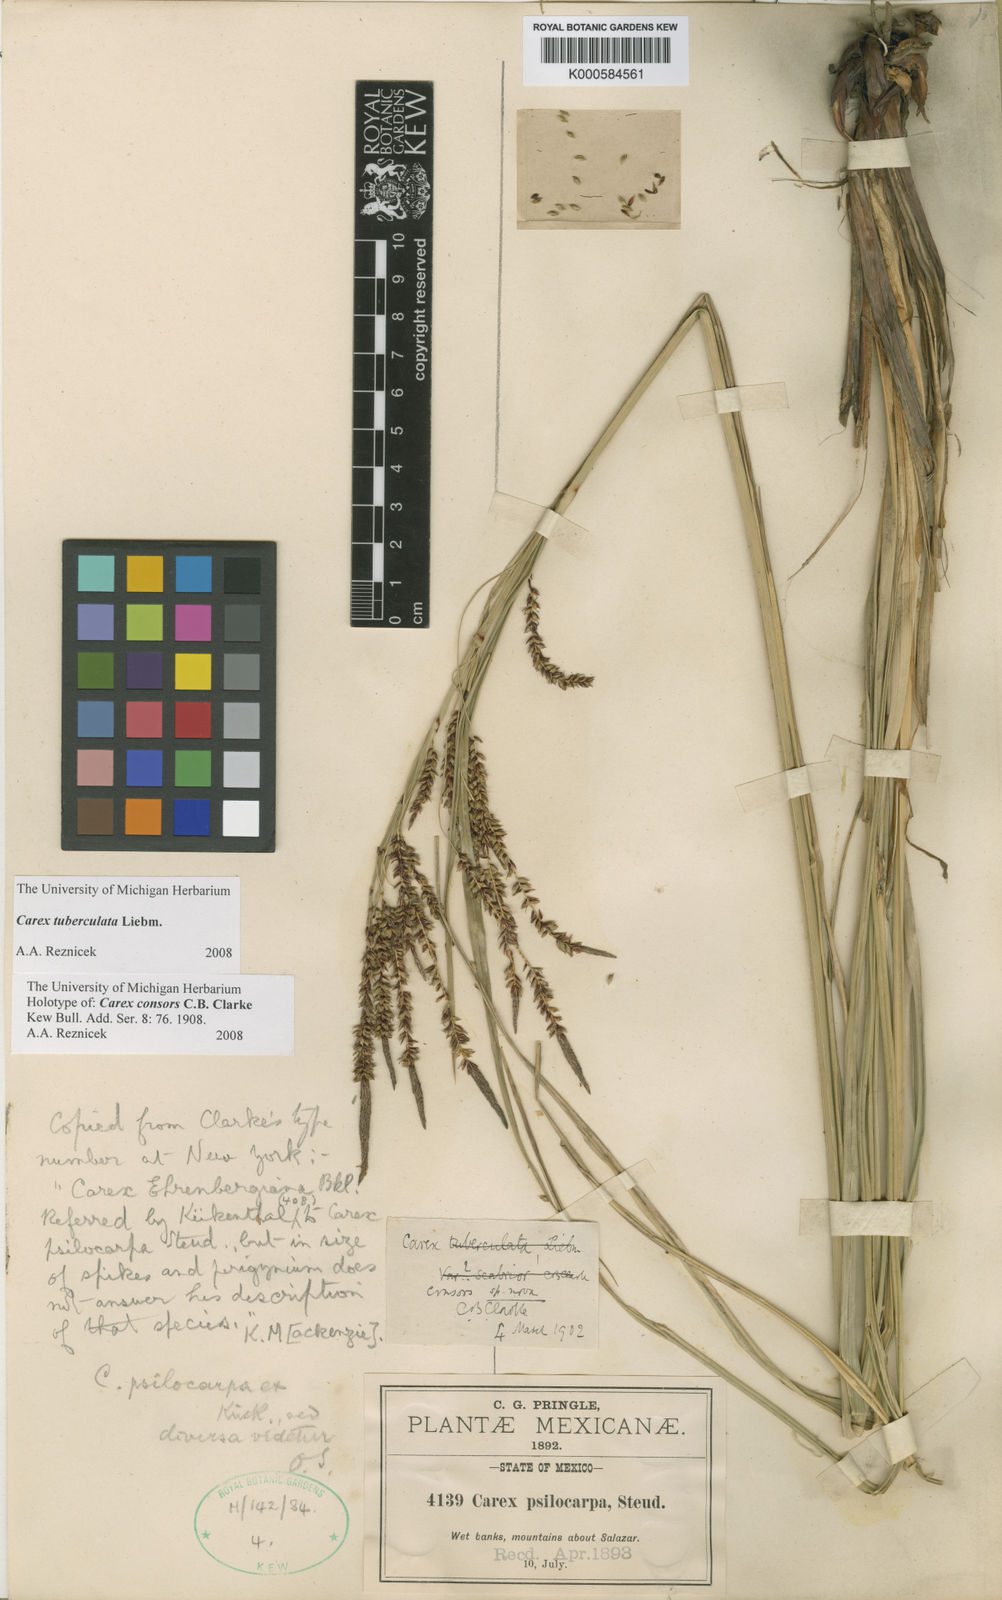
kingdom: Plantae
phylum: Tracheophyta
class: Liliopsida
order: Poales
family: Cyperaceae
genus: Carex
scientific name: Carex tuberculata
